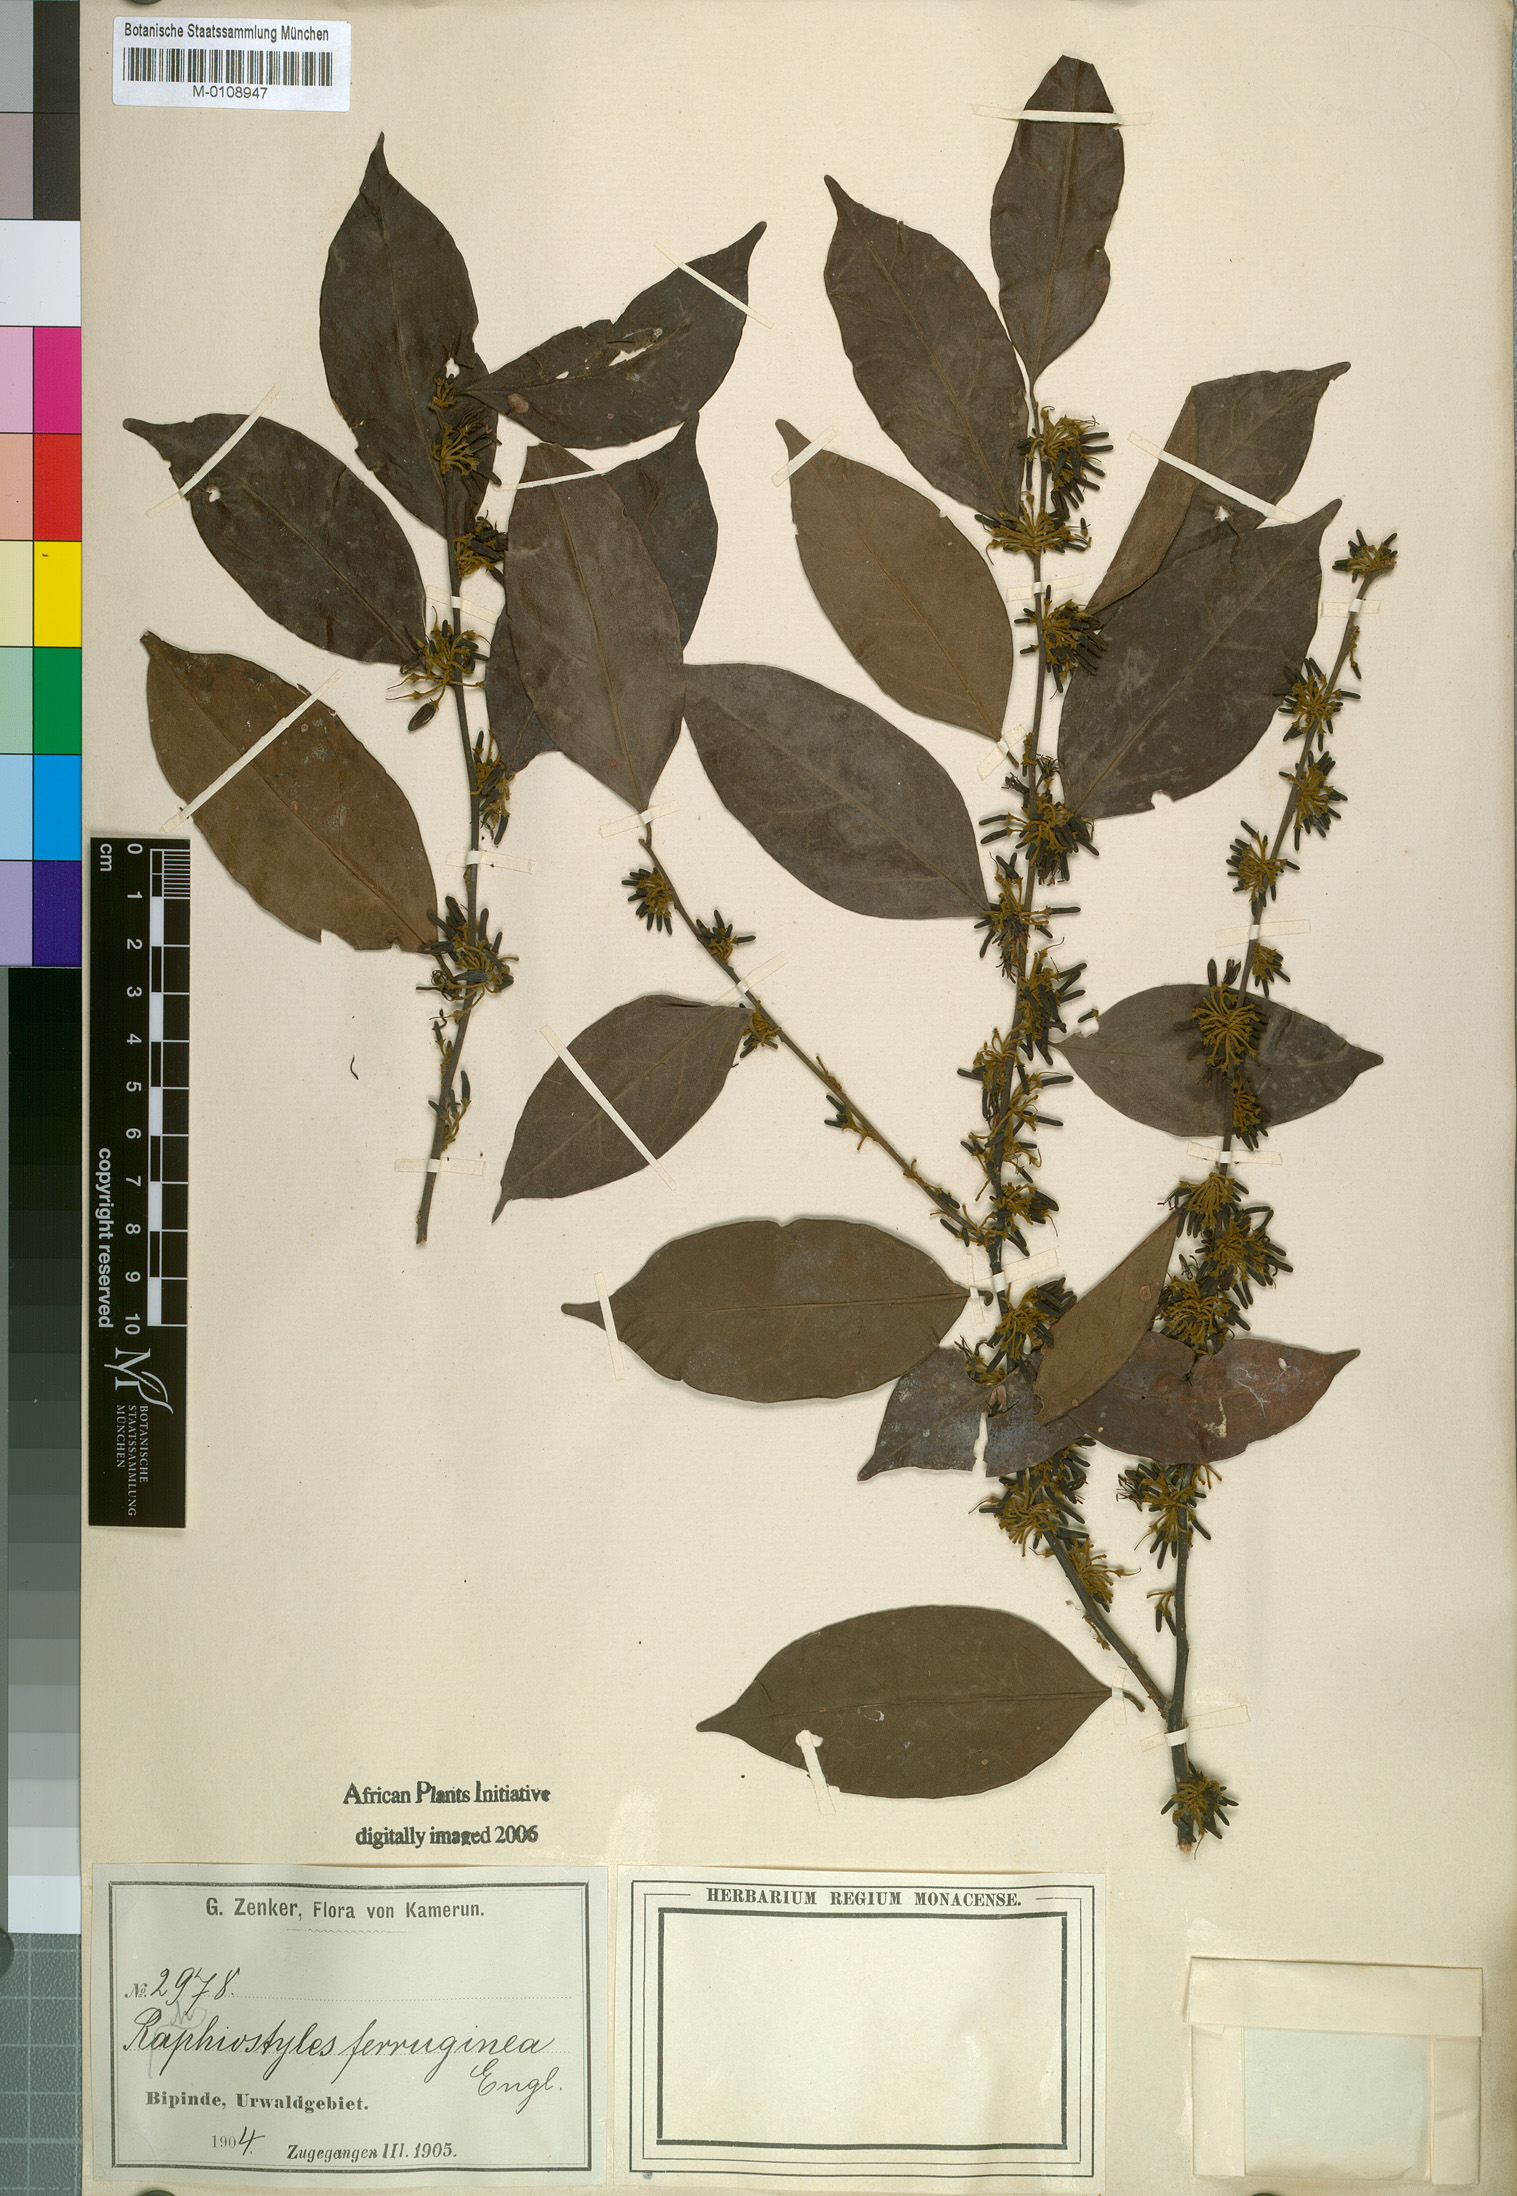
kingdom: Plantae
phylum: Tracheophyta
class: Magnoliopsida
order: Metteniusales
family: Metteniusaceae
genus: Rhaphiostylis
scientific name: Rhaphiostylis ferruginea
